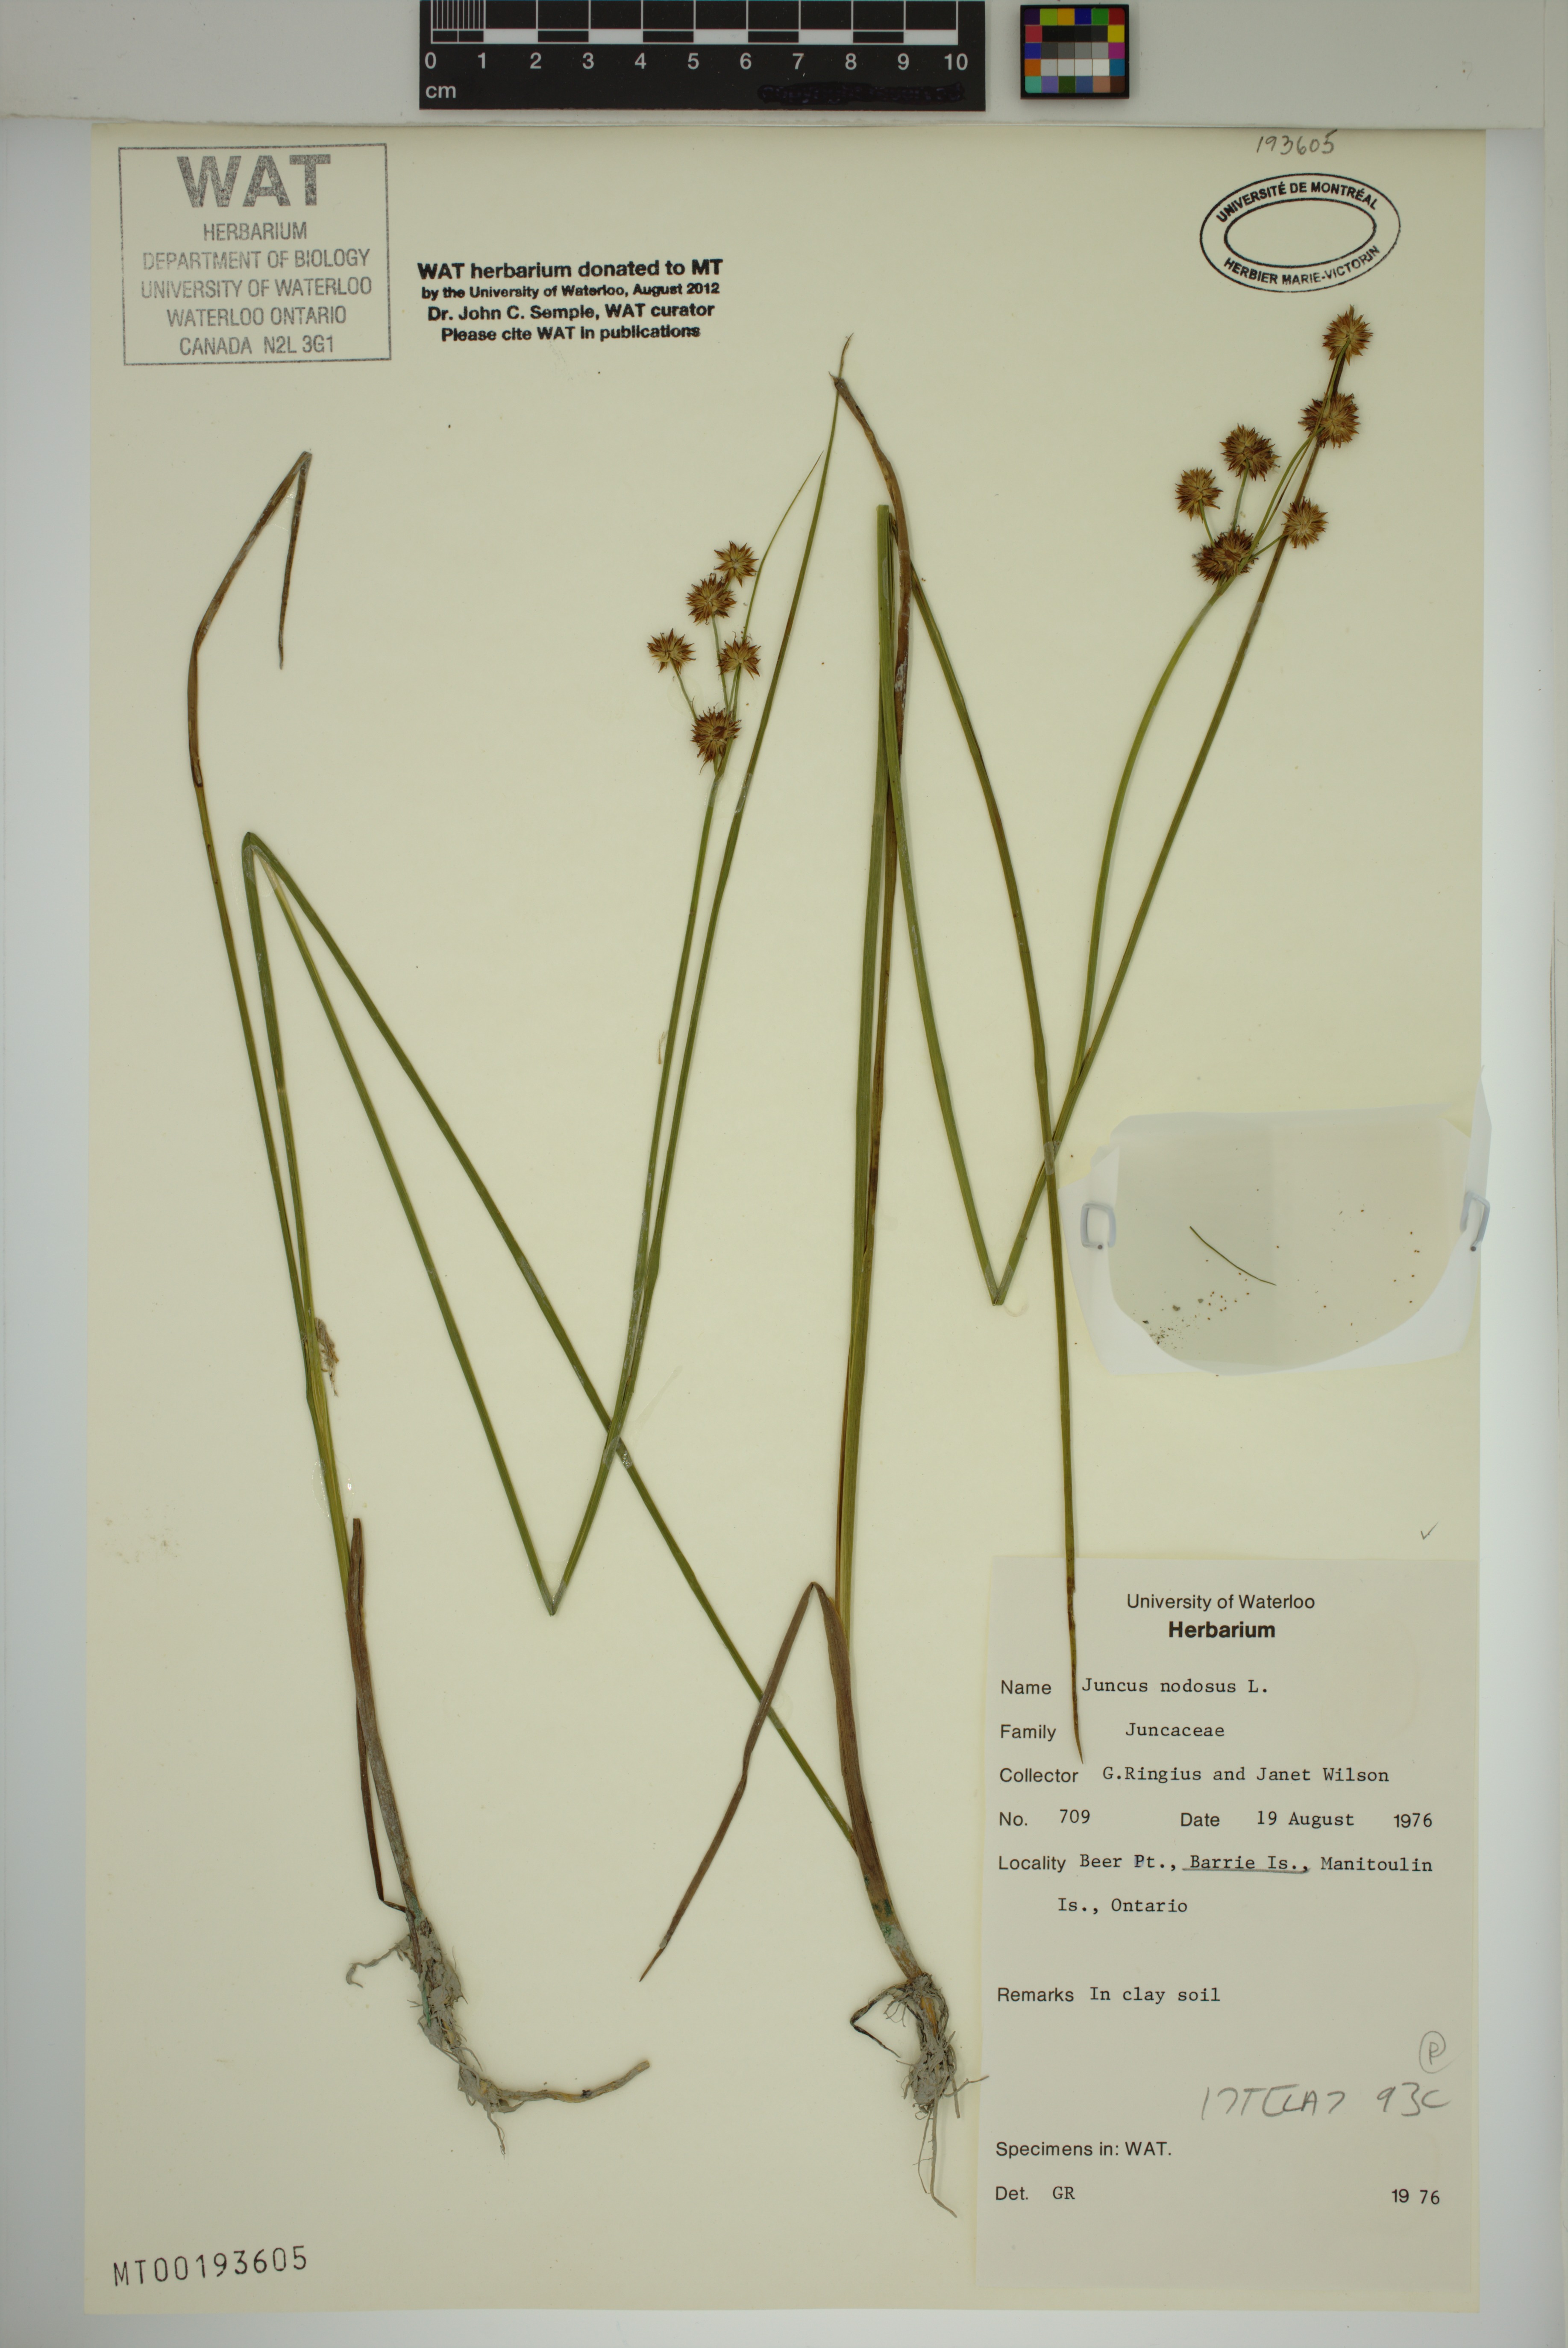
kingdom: Plantae
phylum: Tracheophyta
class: Liliopsida
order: Poales
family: Juncaceae
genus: Juncus
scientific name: Juncus nodosus
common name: Knotted rush
